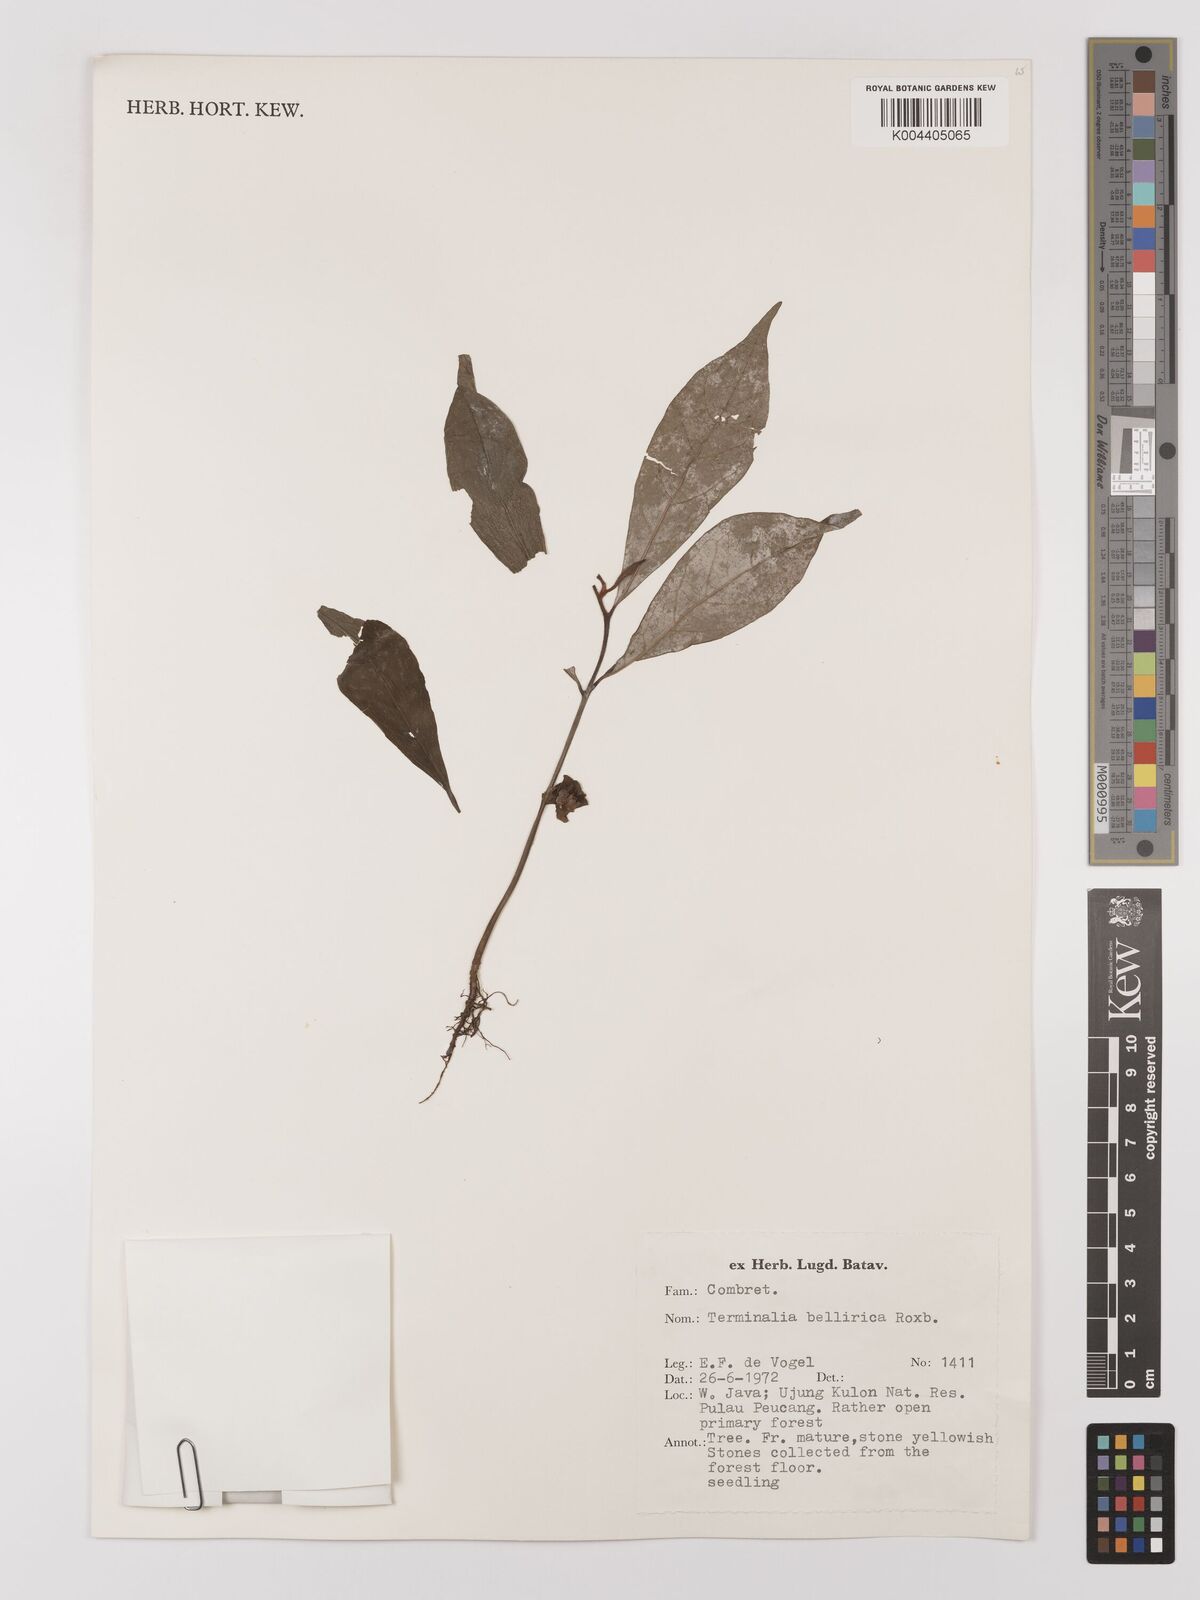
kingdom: Plantae
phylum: Tracheophyta
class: Magnoliopsida
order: Myrtales
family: Combretaceae
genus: Terminalia
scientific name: Terminalia bellirica
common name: Beleric myrobalan
